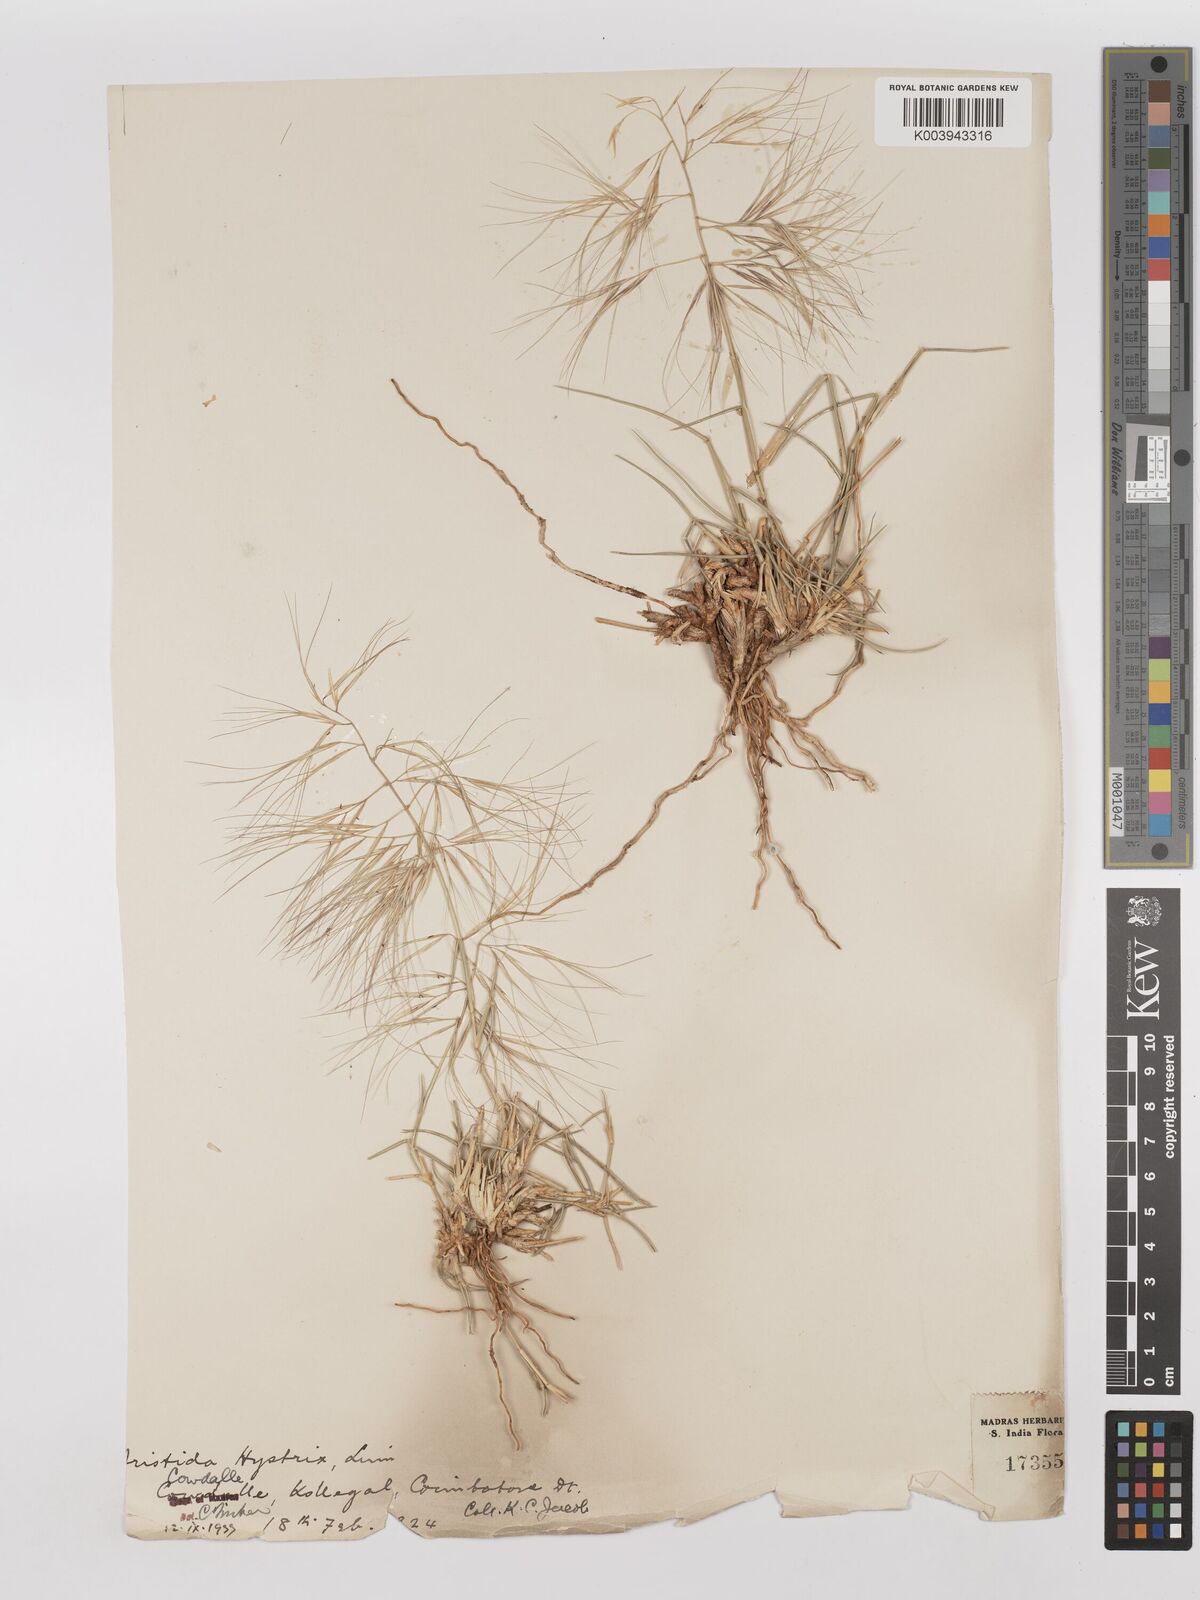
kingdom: Plantae
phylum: Tracheophyta
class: Liliopsida
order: Poales
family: Poaceae
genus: Aristida
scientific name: Aristida hystrix
